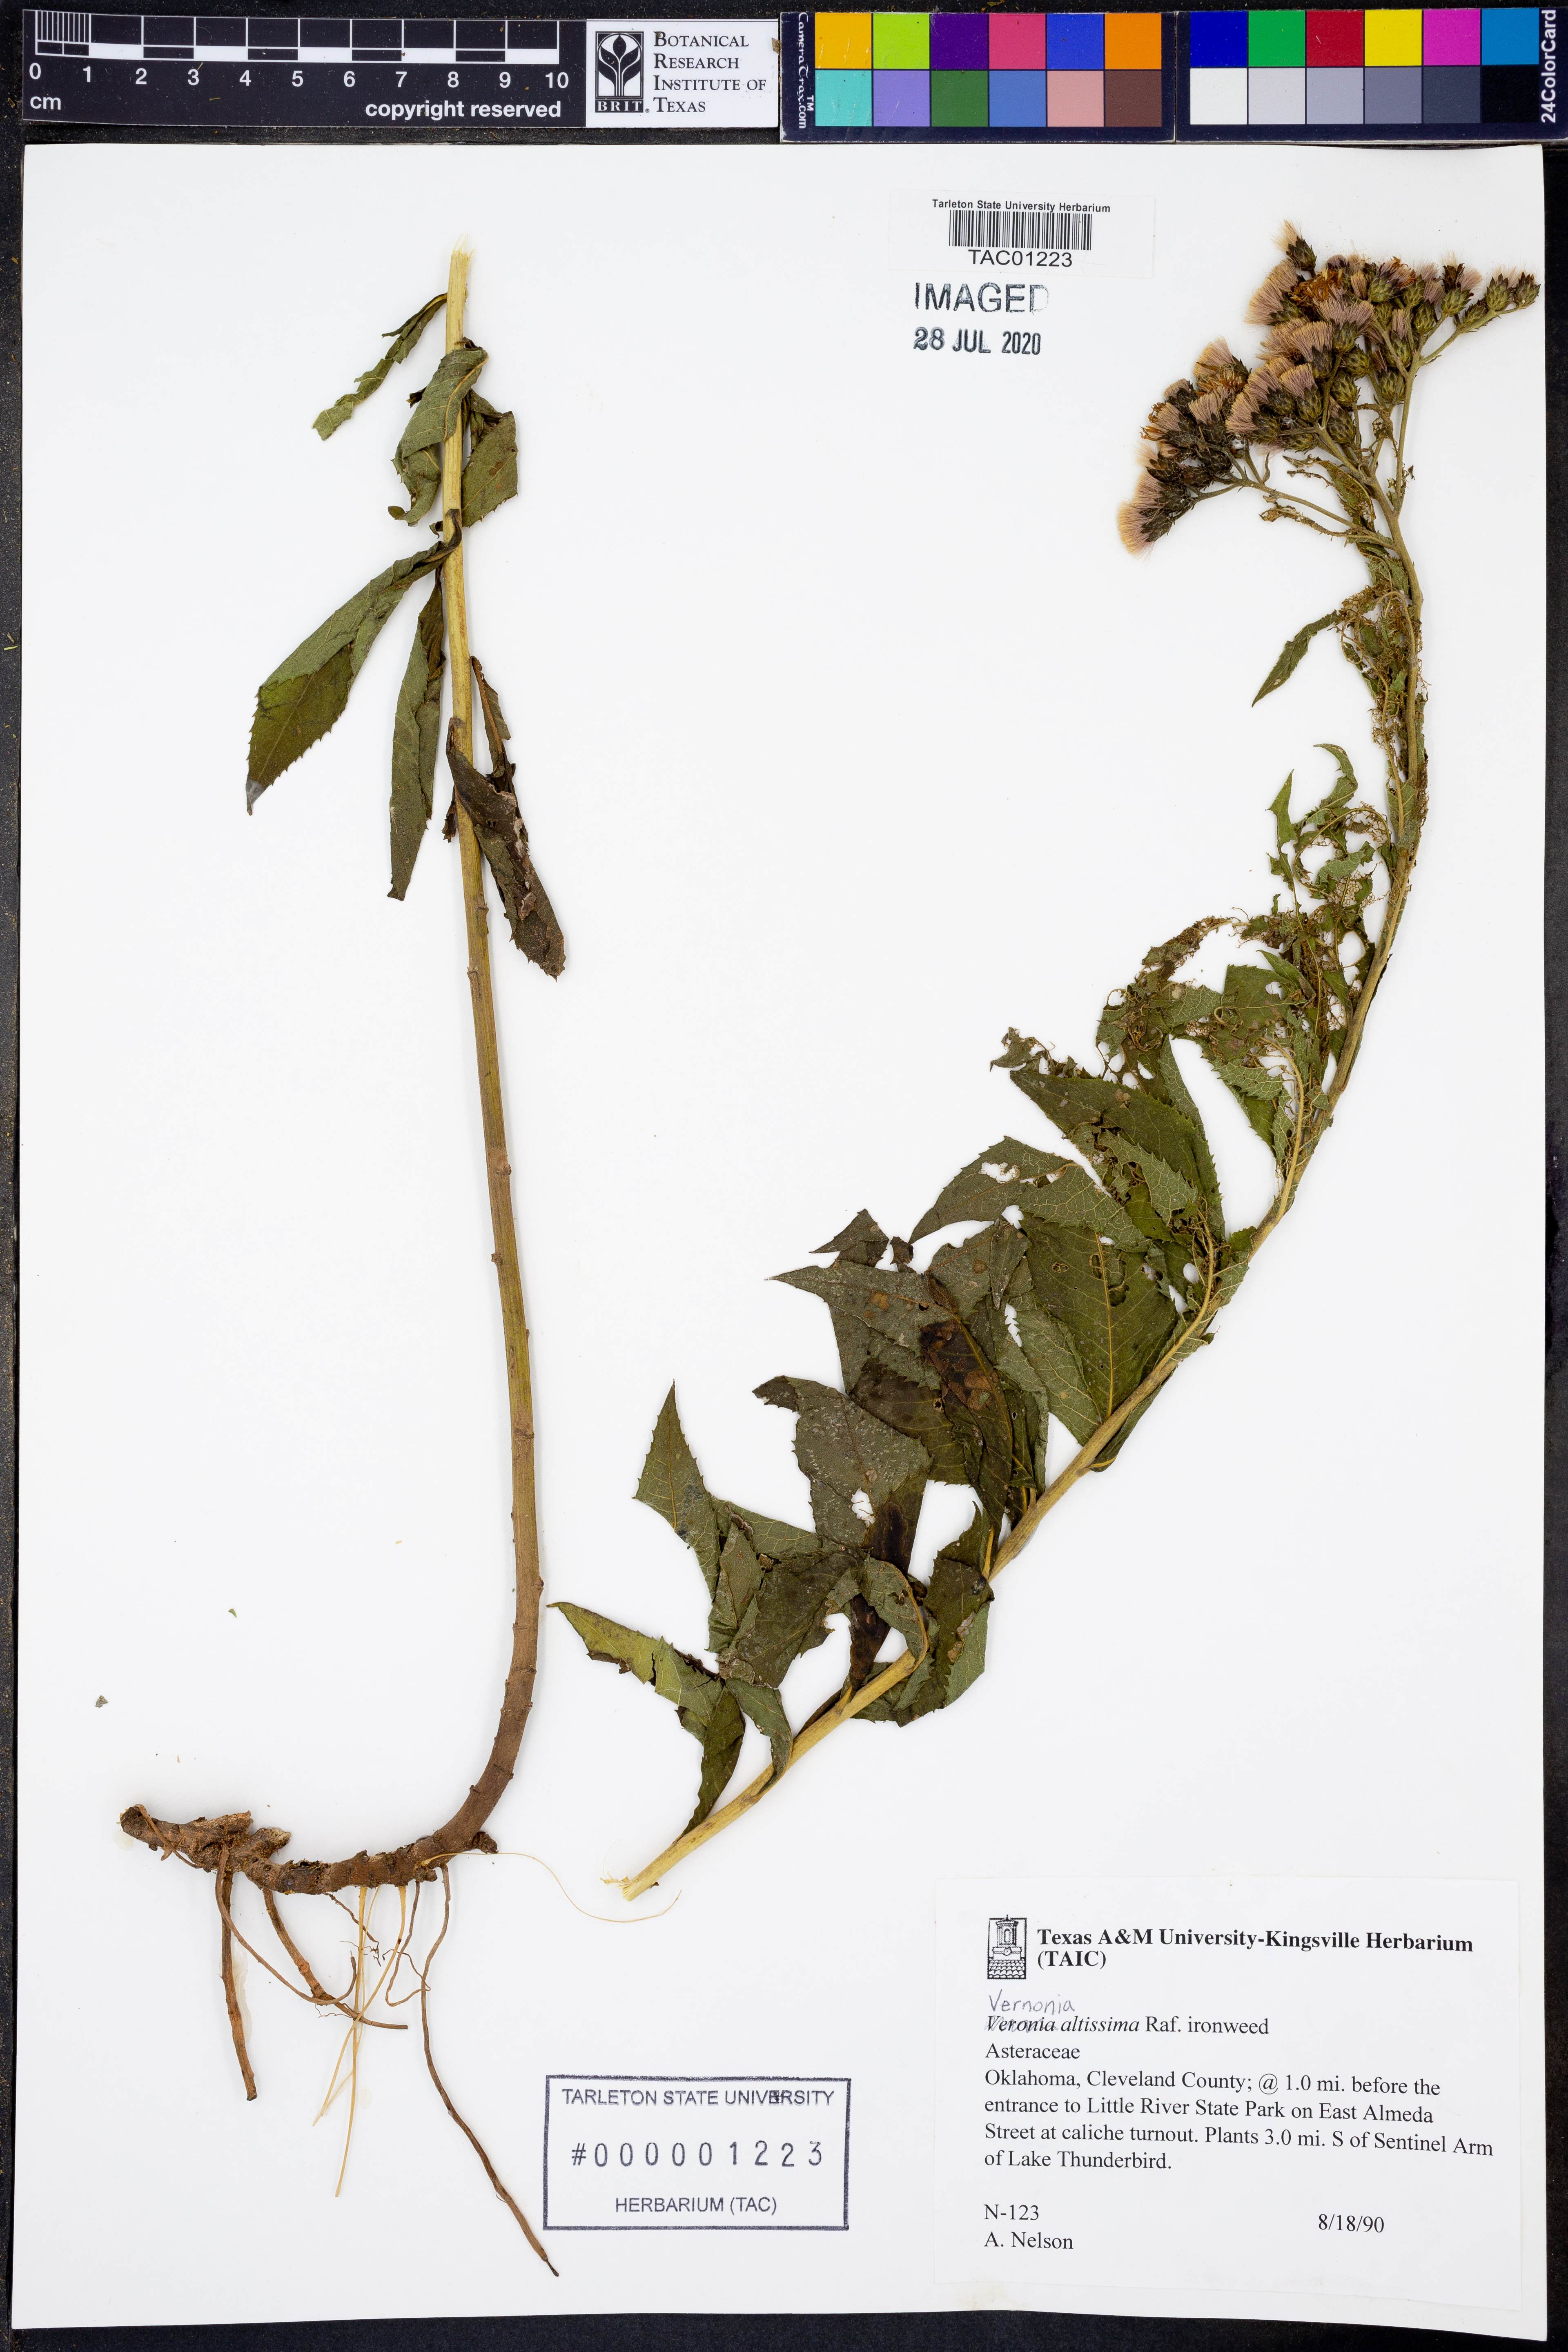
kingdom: Plantae
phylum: Tracheophyta
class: Magnoliopsida
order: Asterales
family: Asteraceae
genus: Vernonia
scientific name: Vernonia gigantea
